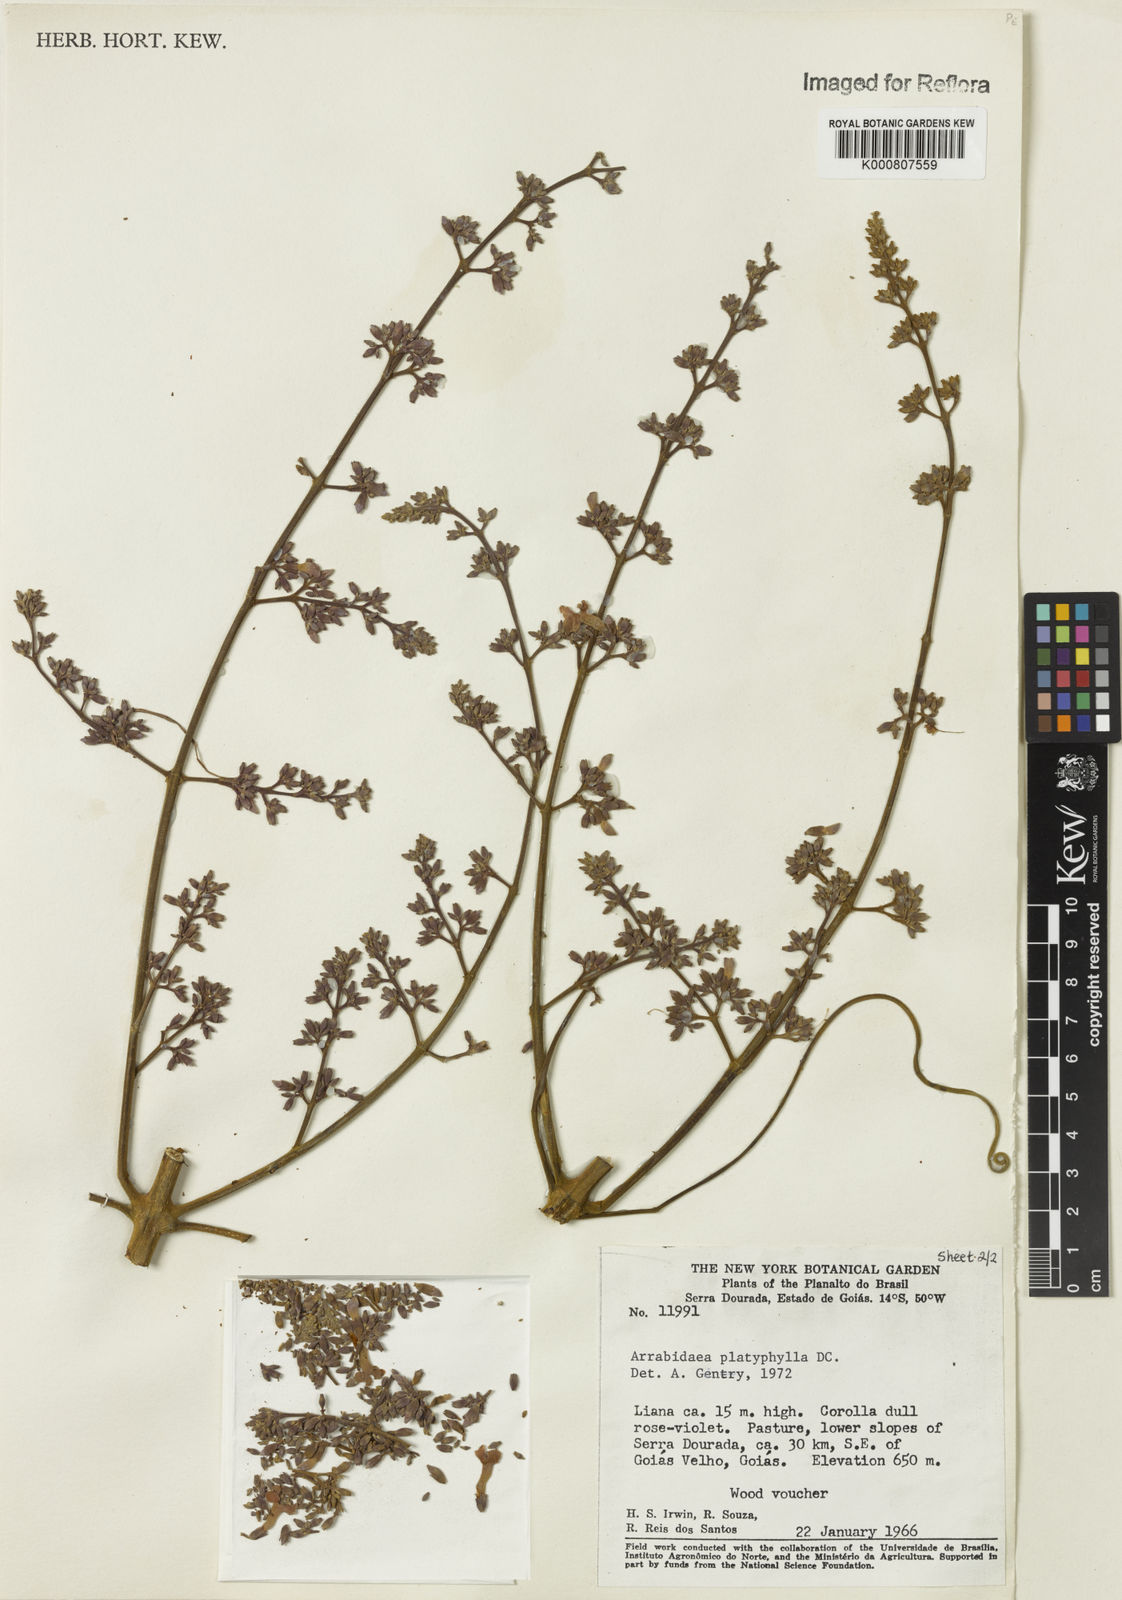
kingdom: Plantae
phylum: Tracheophyta
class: Magnoliopsida
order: Lamiales
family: Bignoniaceae
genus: Xylophragma
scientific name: Xylophragma platyphyllum
